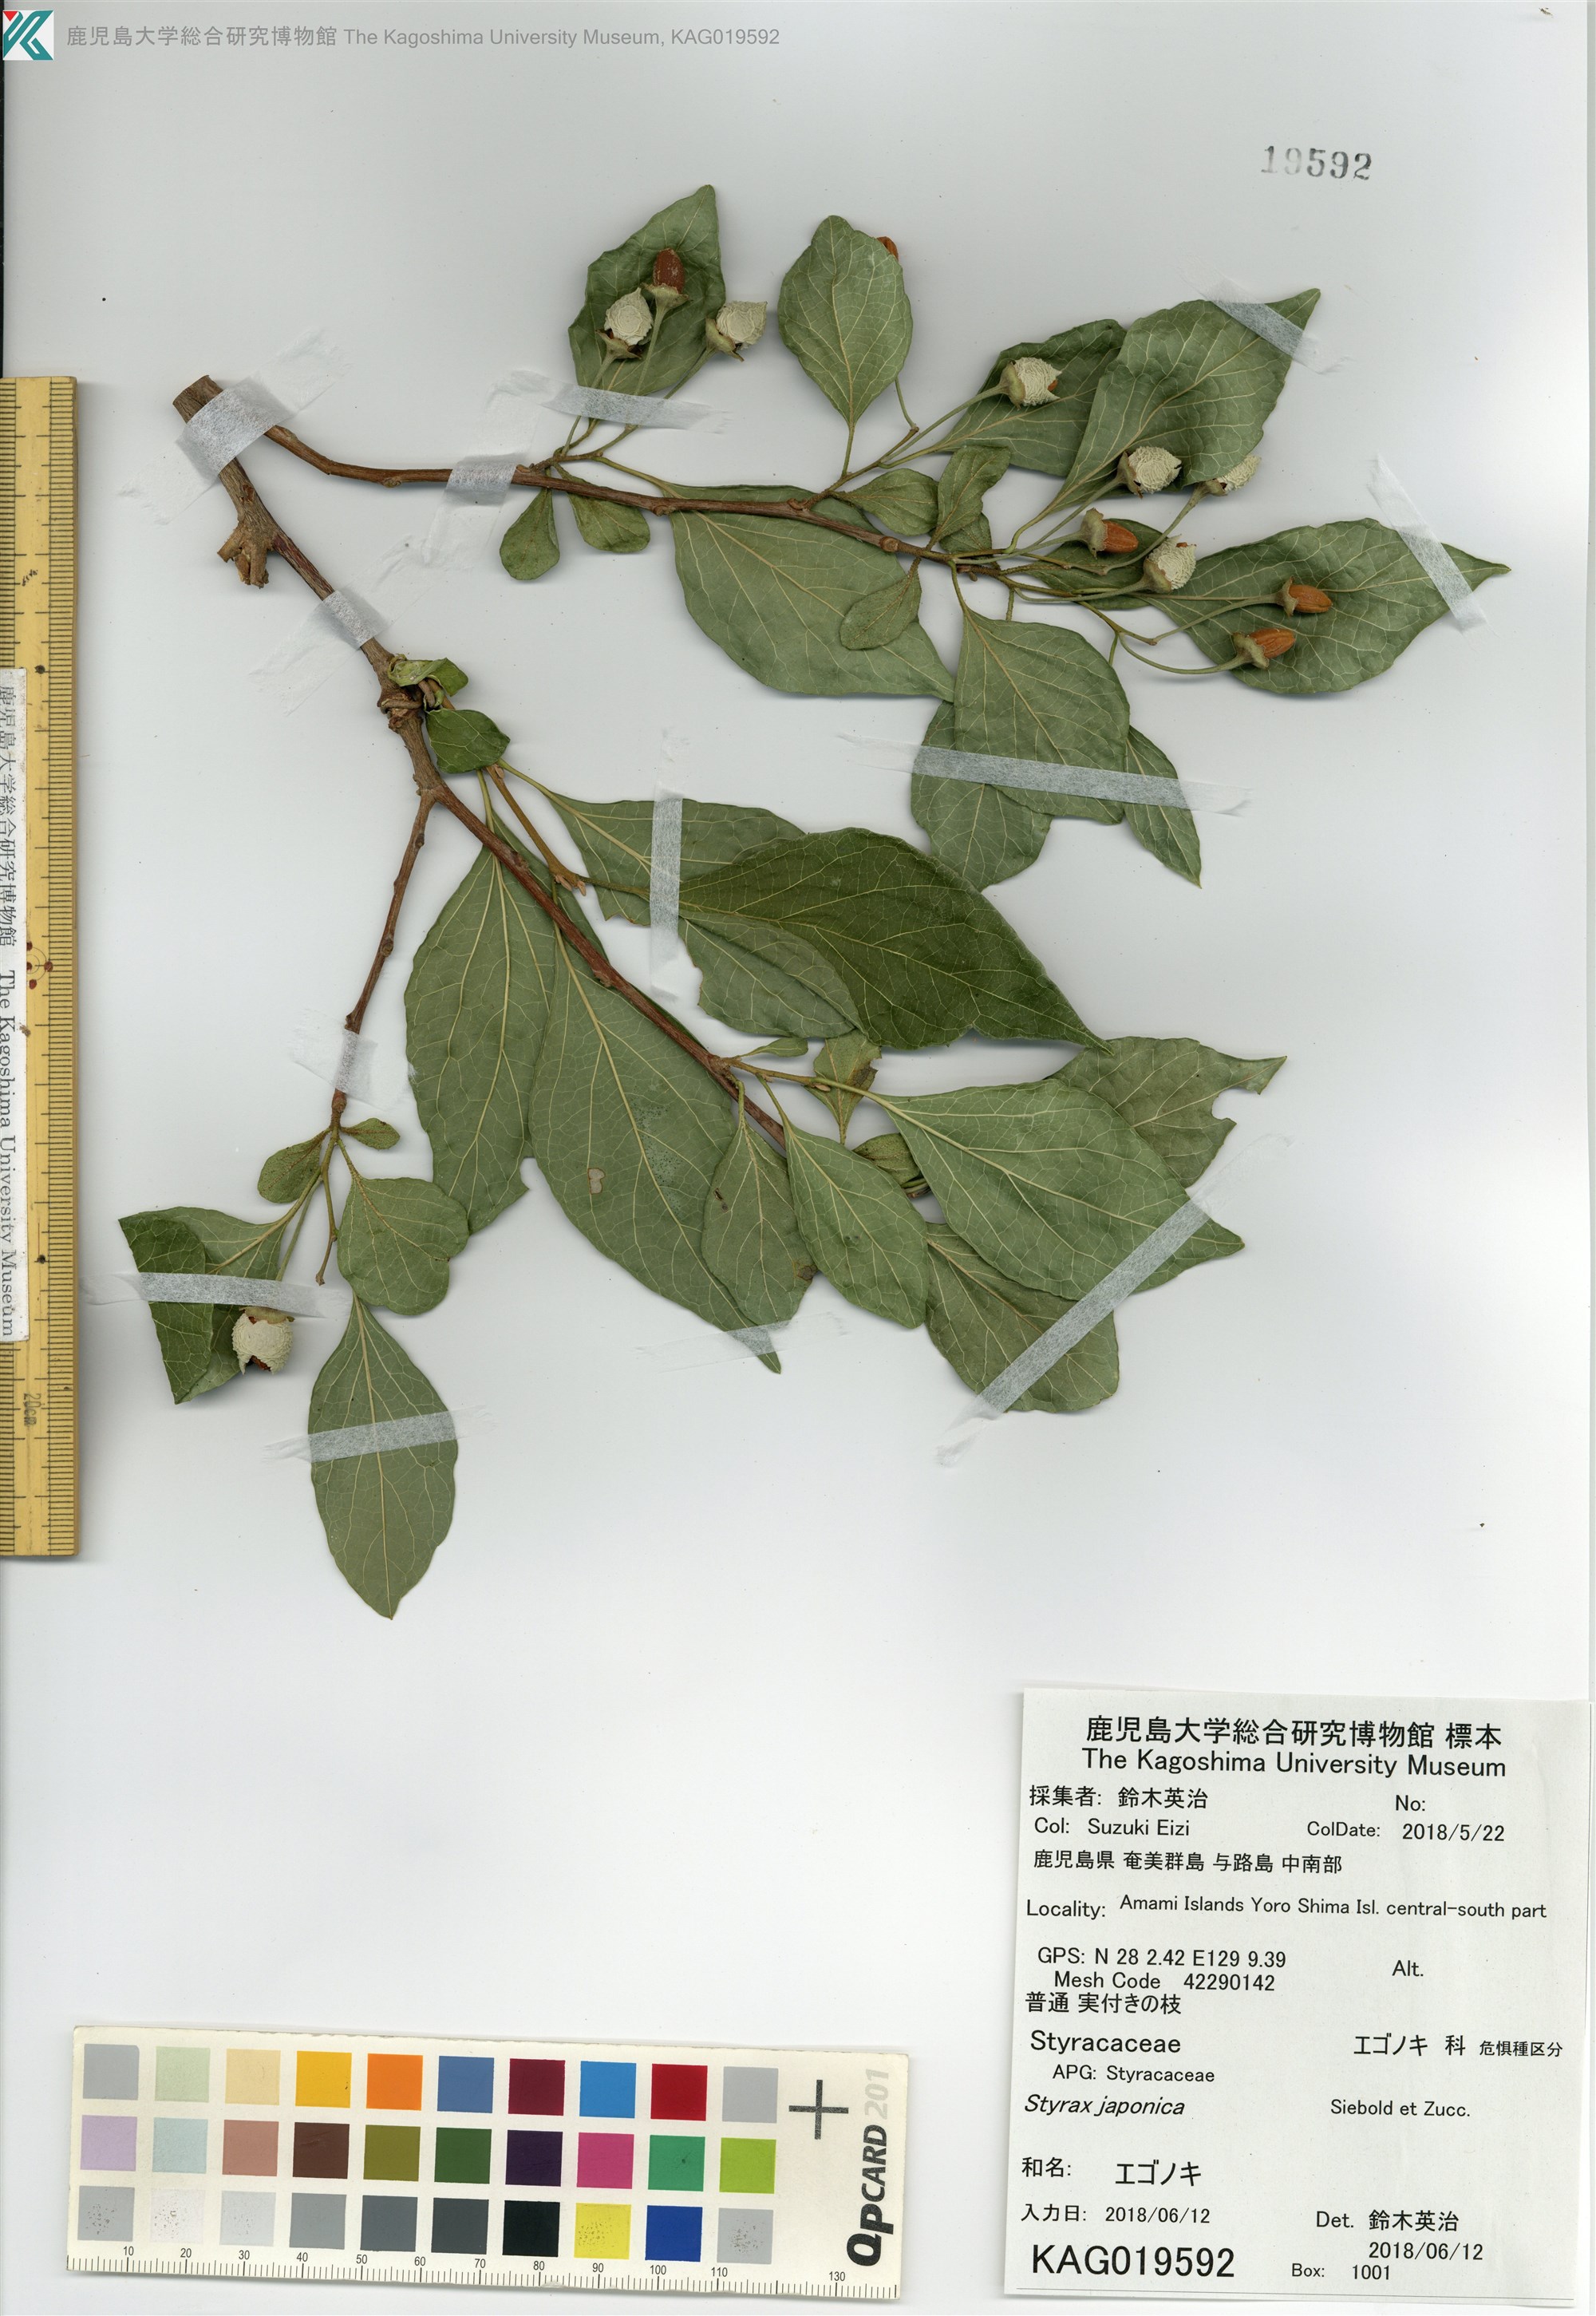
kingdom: Plantae
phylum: Tracheophyta
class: Magnoliopsida
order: Ericales
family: Styracaceae
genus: Styrax
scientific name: Styrax japonicus
